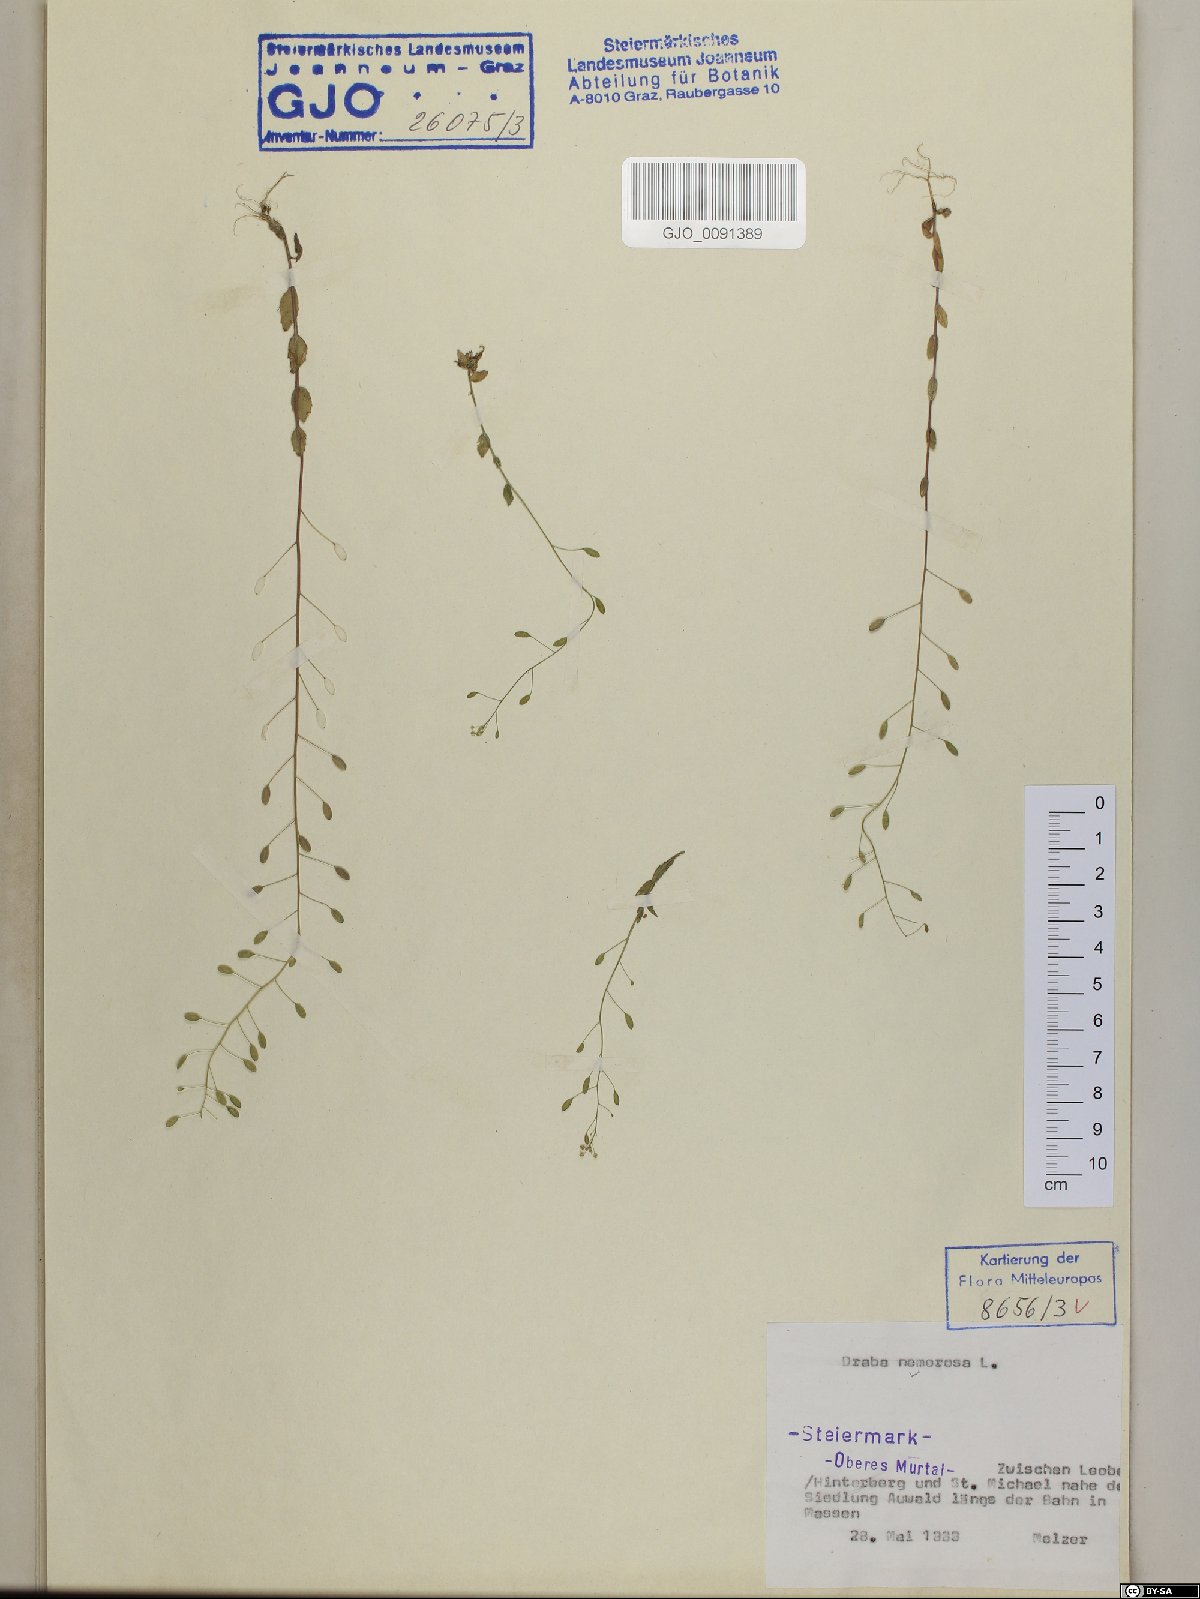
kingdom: Plantae
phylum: Tracheophyta
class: Magnoliopsida
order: Brassicales
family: Brassicaceae
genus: Draba
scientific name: Draba nemorosa
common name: Wood whitlow-grass
